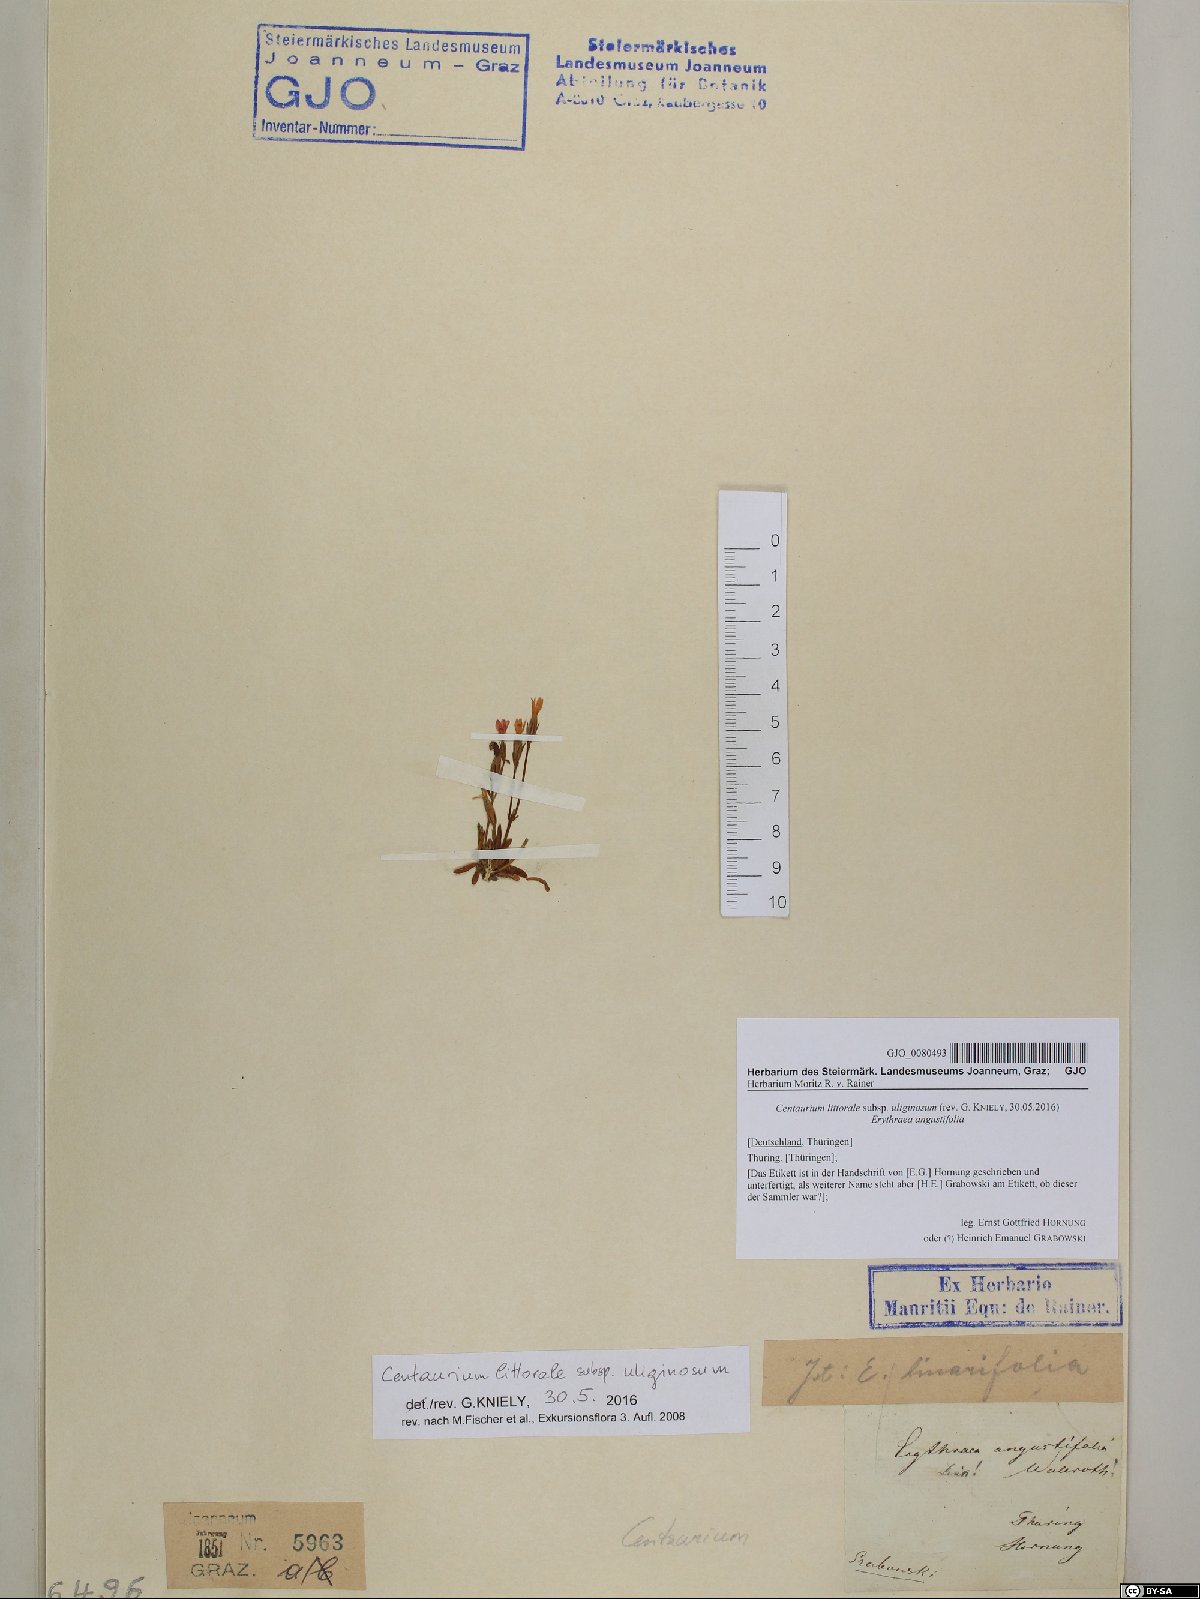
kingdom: Plantae
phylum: Tracheophyta
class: Magnoliopsida
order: Gentianales
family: Gentianaceae
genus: Centaurium
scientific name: Centaurium littorale
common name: Seaside centaury
